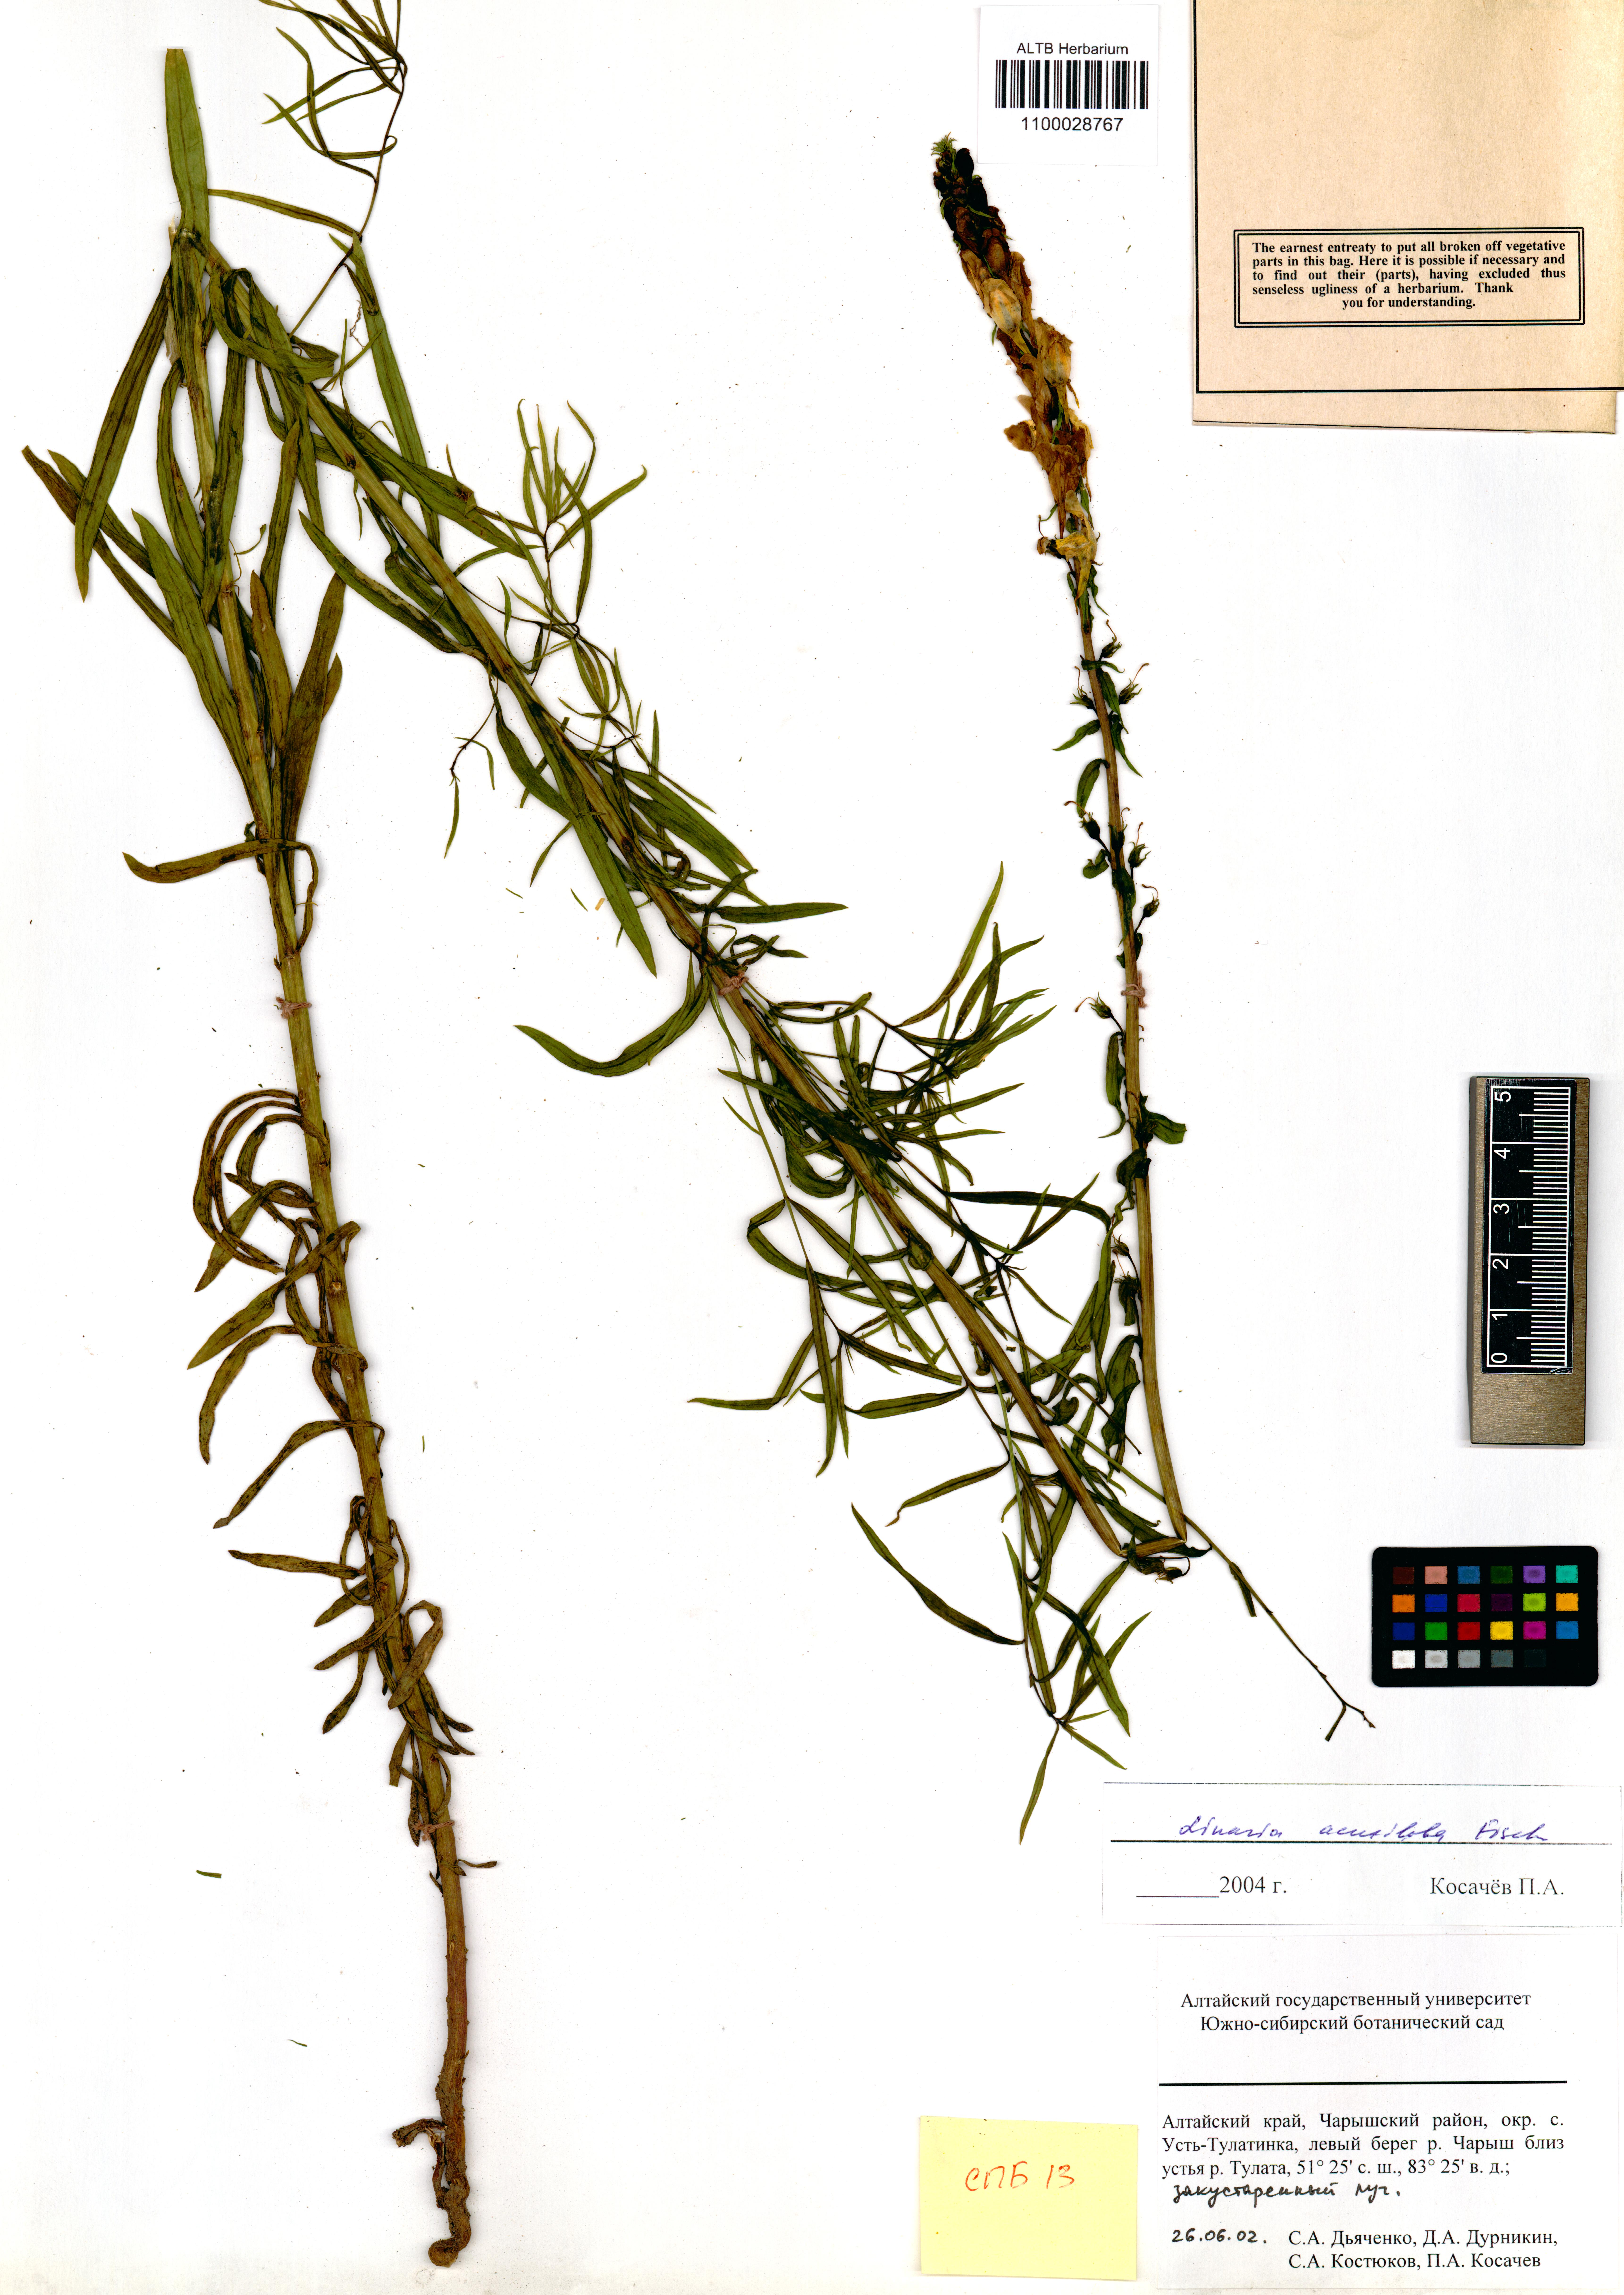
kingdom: Plantae
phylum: Tracheophyta
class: Magnoliopsida
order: Lamiales
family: Plantaginaceae
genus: Linaria
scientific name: Linaria acutiloba
